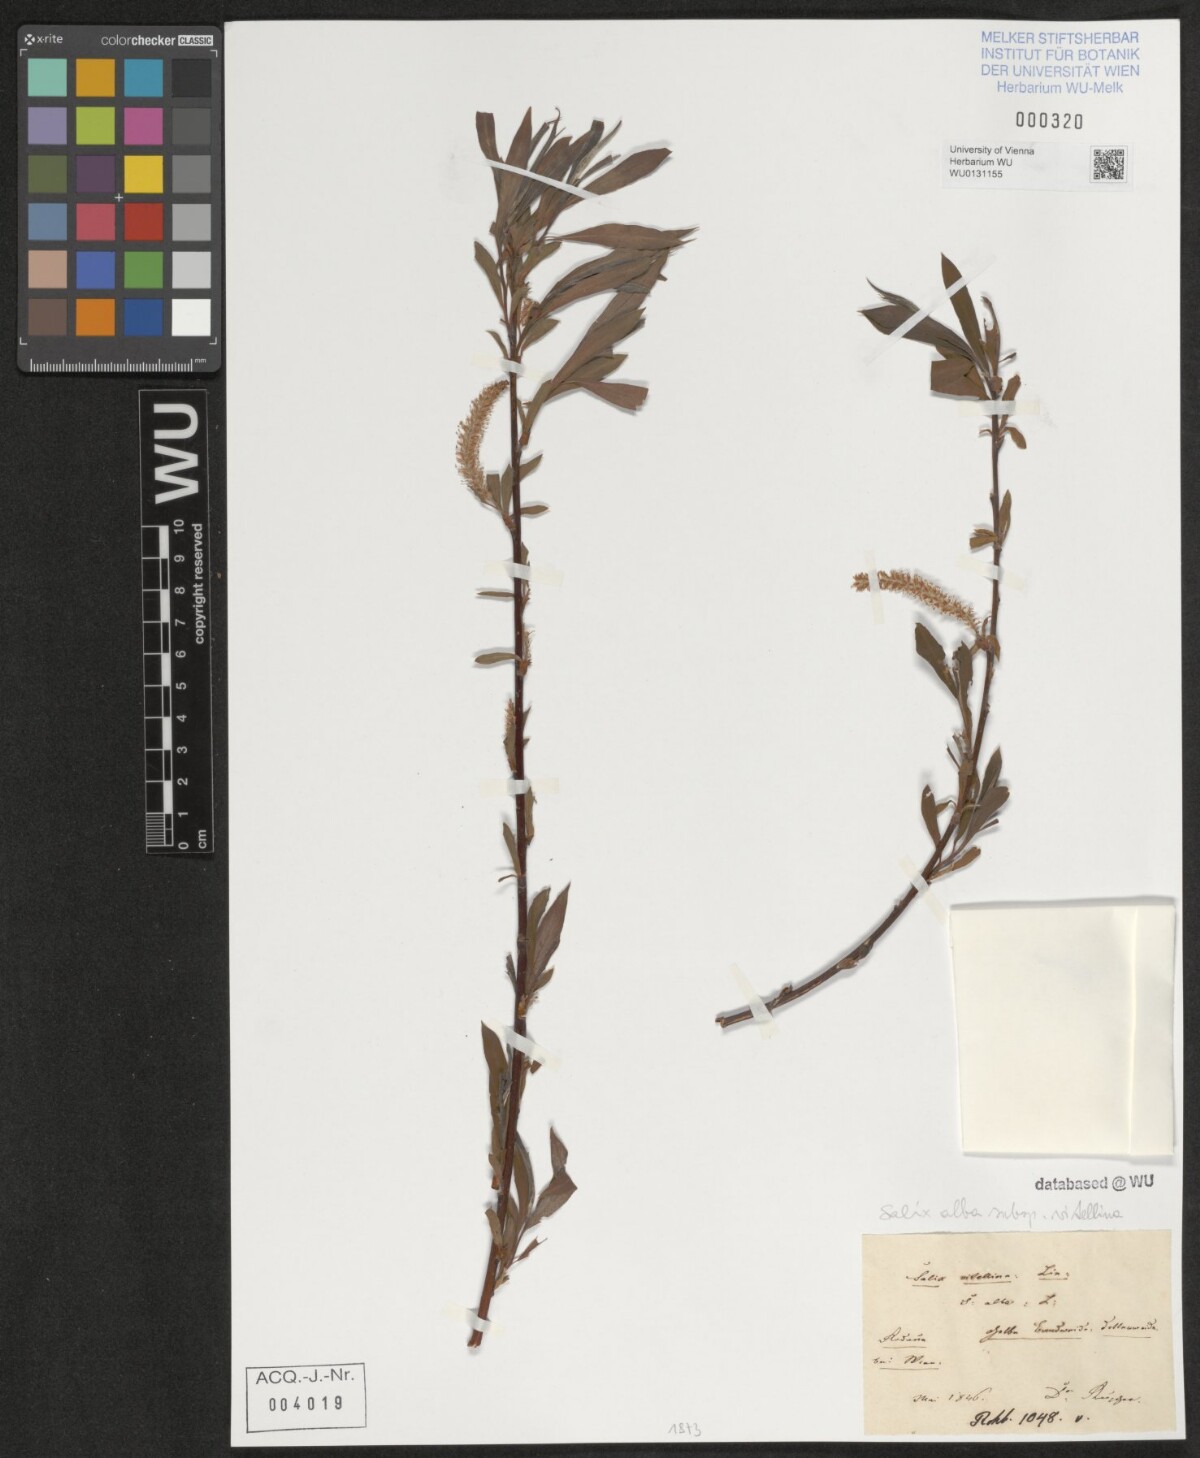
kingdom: Plantae
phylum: Tracheophyta
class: Magnoliopsida
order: Malpighiales
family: Salicaceae
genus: Salix
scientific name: Salix alba
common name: White willow
